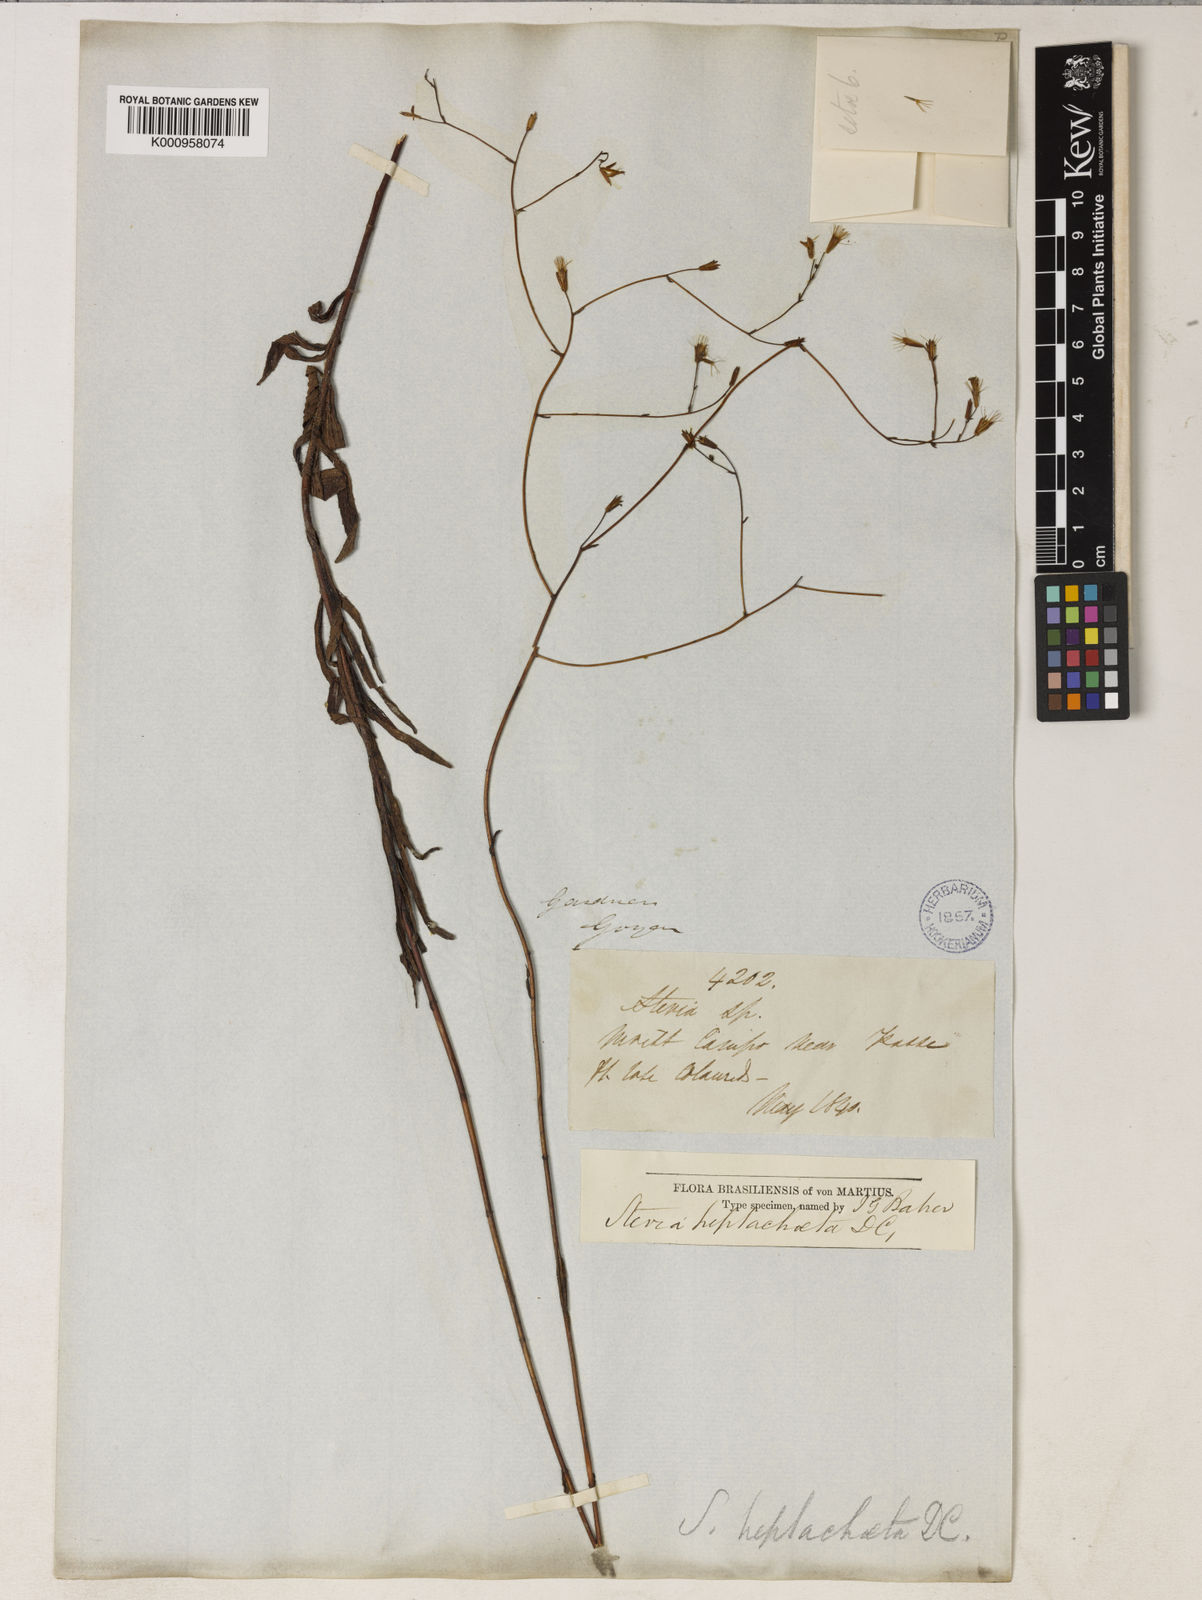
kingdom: Plantae
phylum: Tracheophyta
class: Magnoliopsida
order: Asterales
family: Asteraceae
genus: Stevia
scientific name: Stevia heptachaeta
